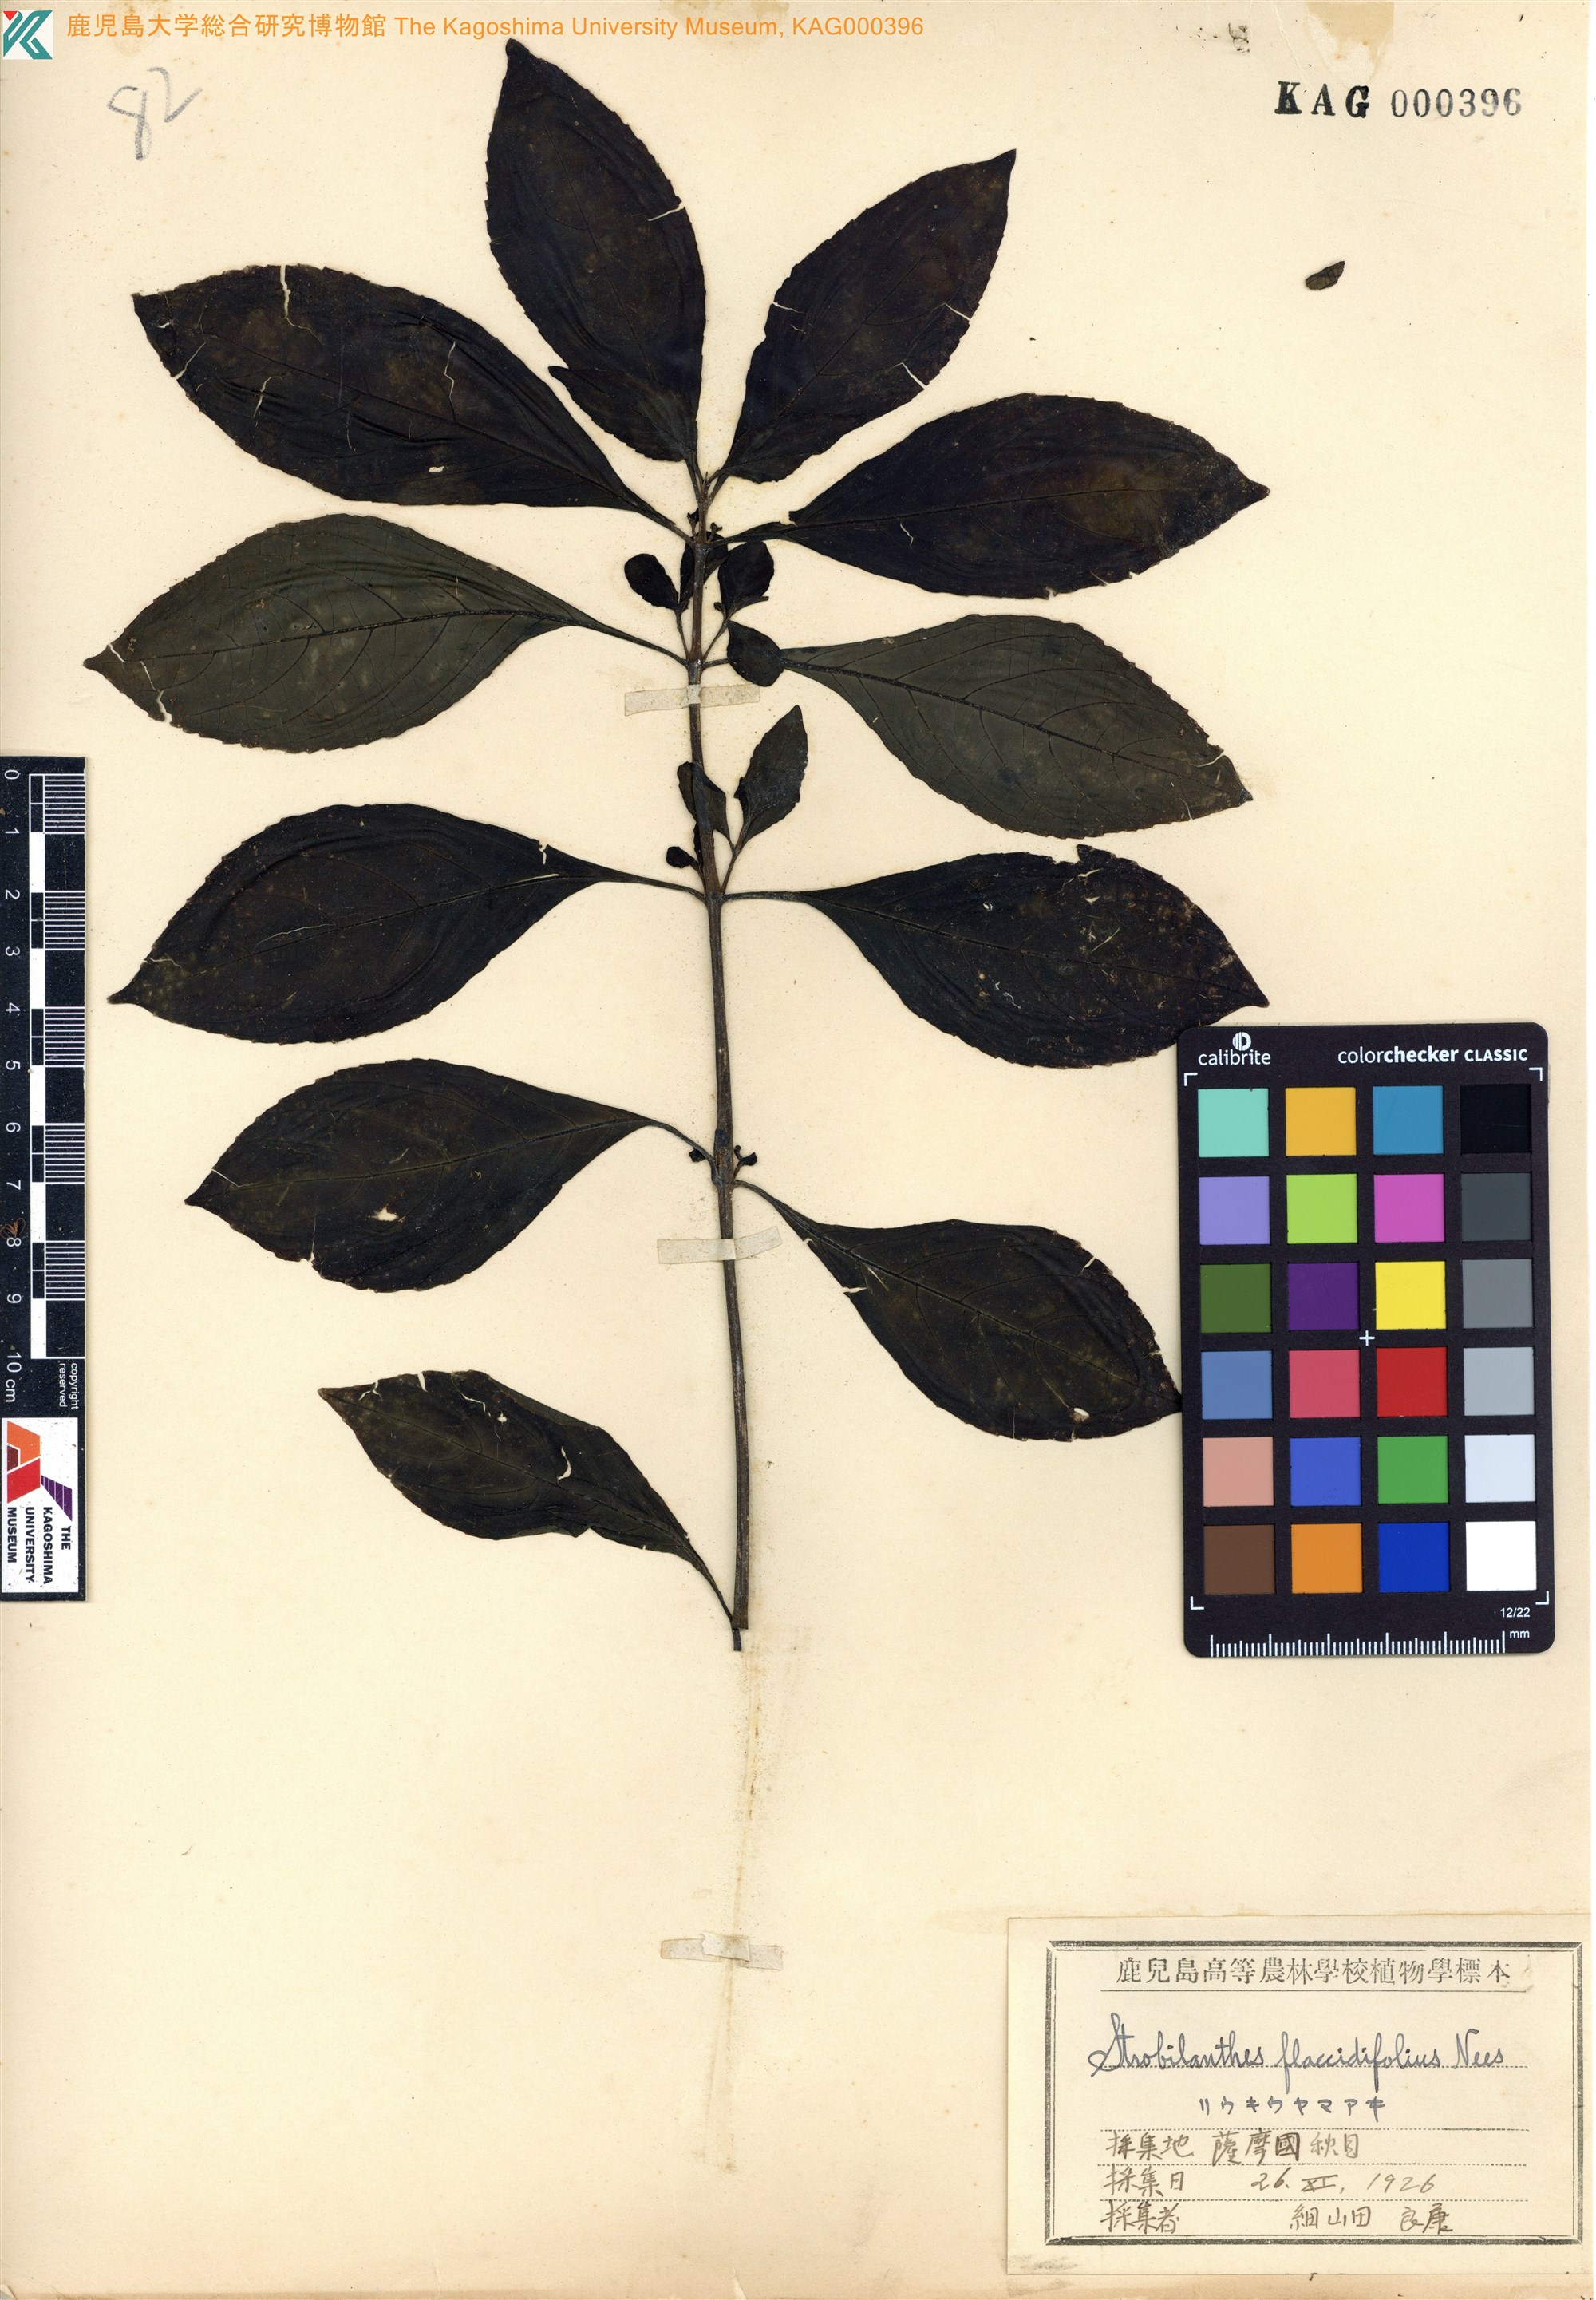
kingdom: Plantae
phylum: Tracheophyta
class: Magnoliopsida
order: Lamiales
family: Acanthaceae
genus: Strobilanthes
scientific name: Strobilanthes cusia
